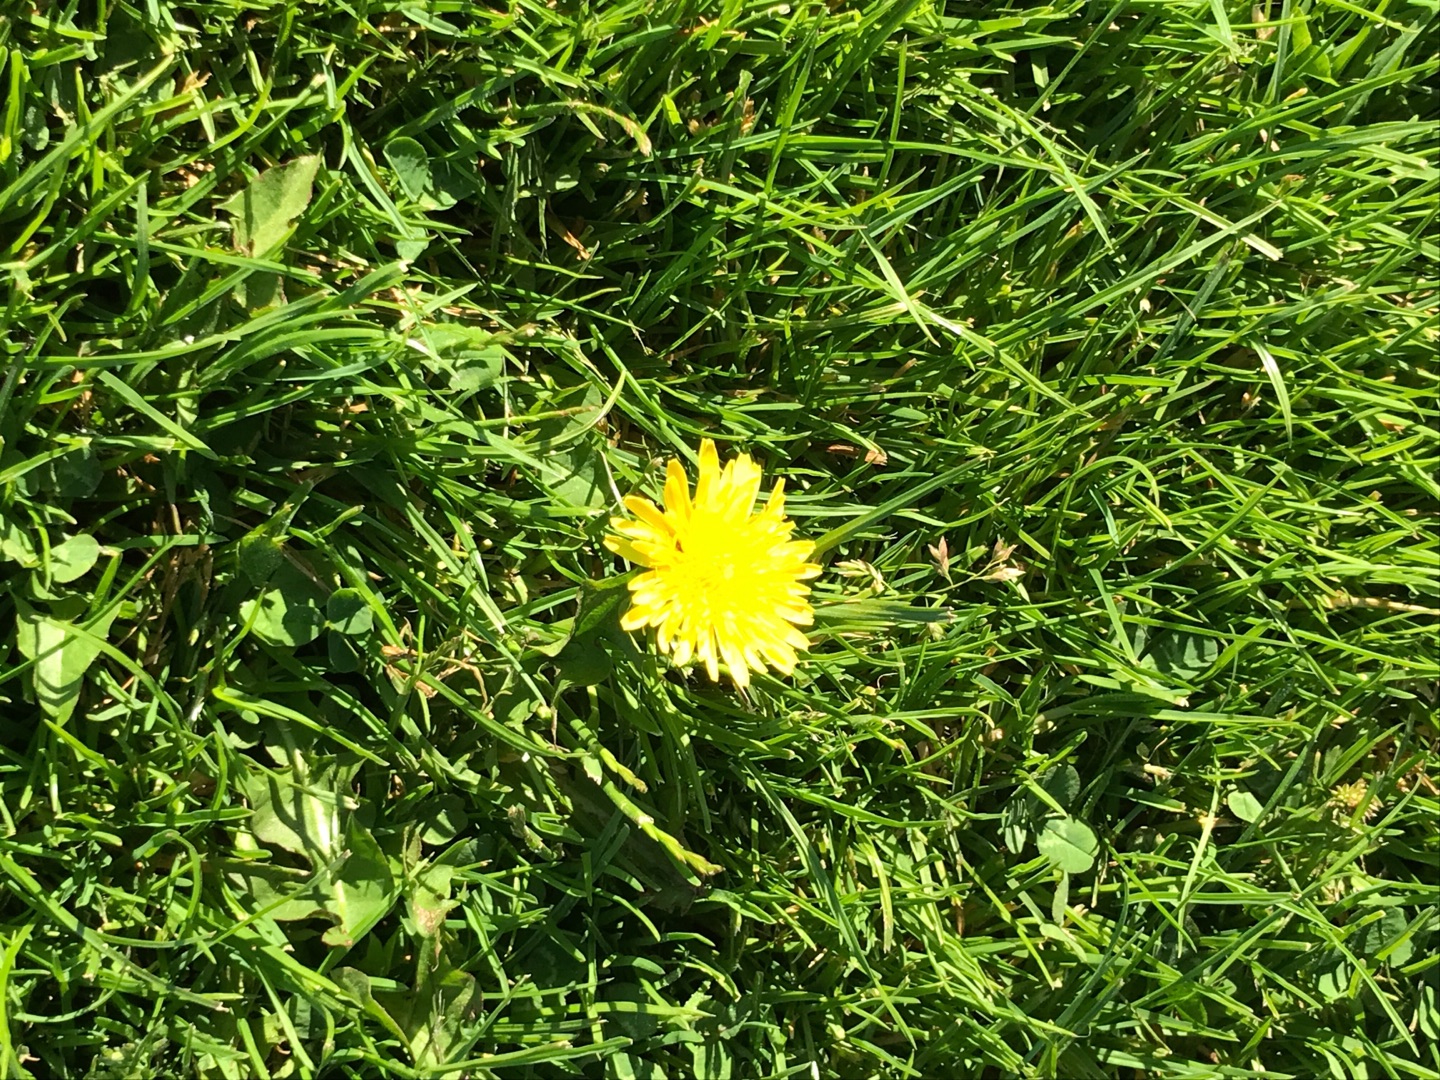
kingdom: Plantae
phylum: Tracheophyta
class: Magnoliopsida
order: Asterales
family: Asteraceae
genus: Taraxacum
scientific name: Taraxacum
